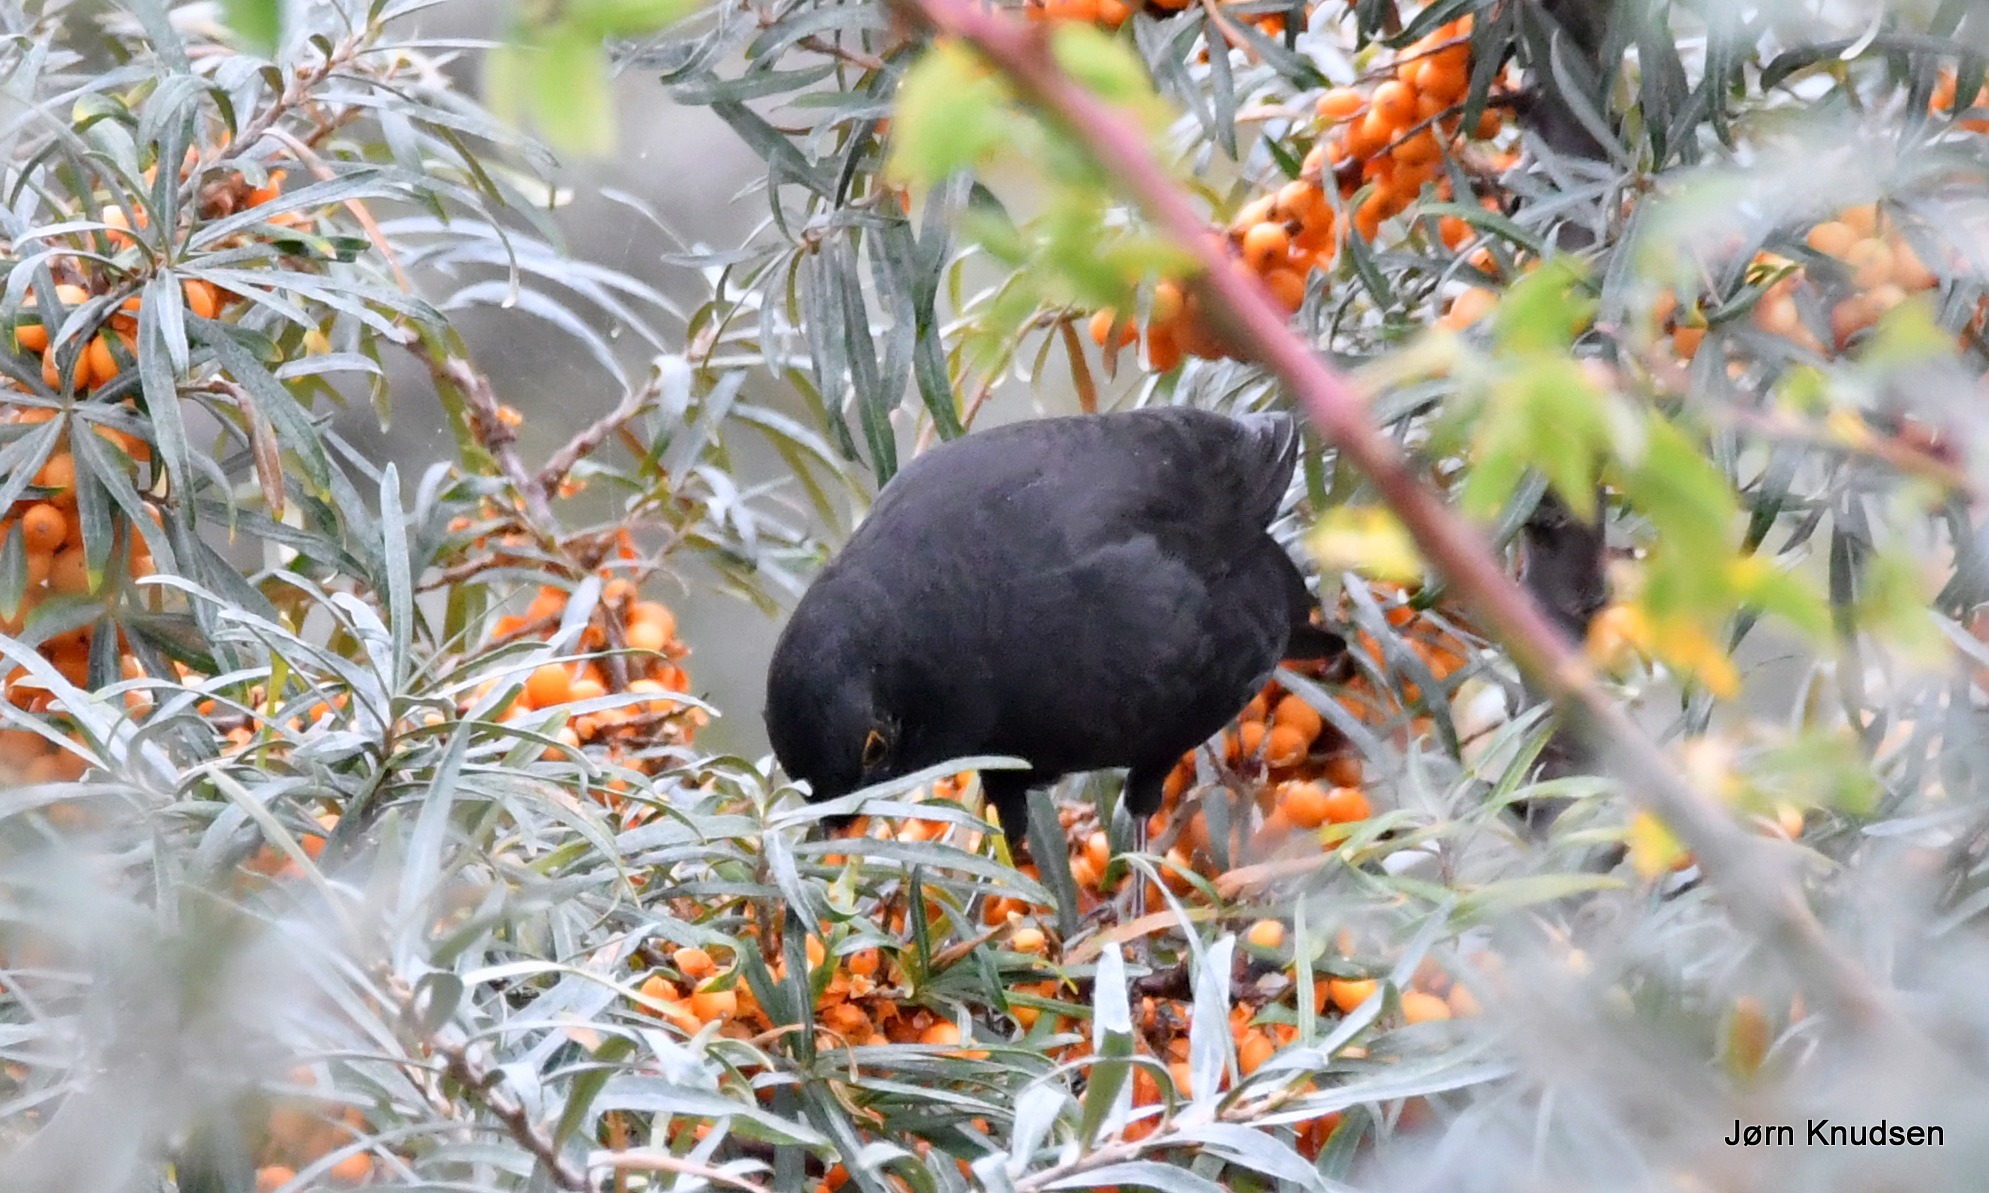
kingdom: Animalia
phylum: Chordata
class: Aves
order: Passeriformes
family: Turdidae
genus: Turdus
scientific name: Turdus merula
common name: Solsort
